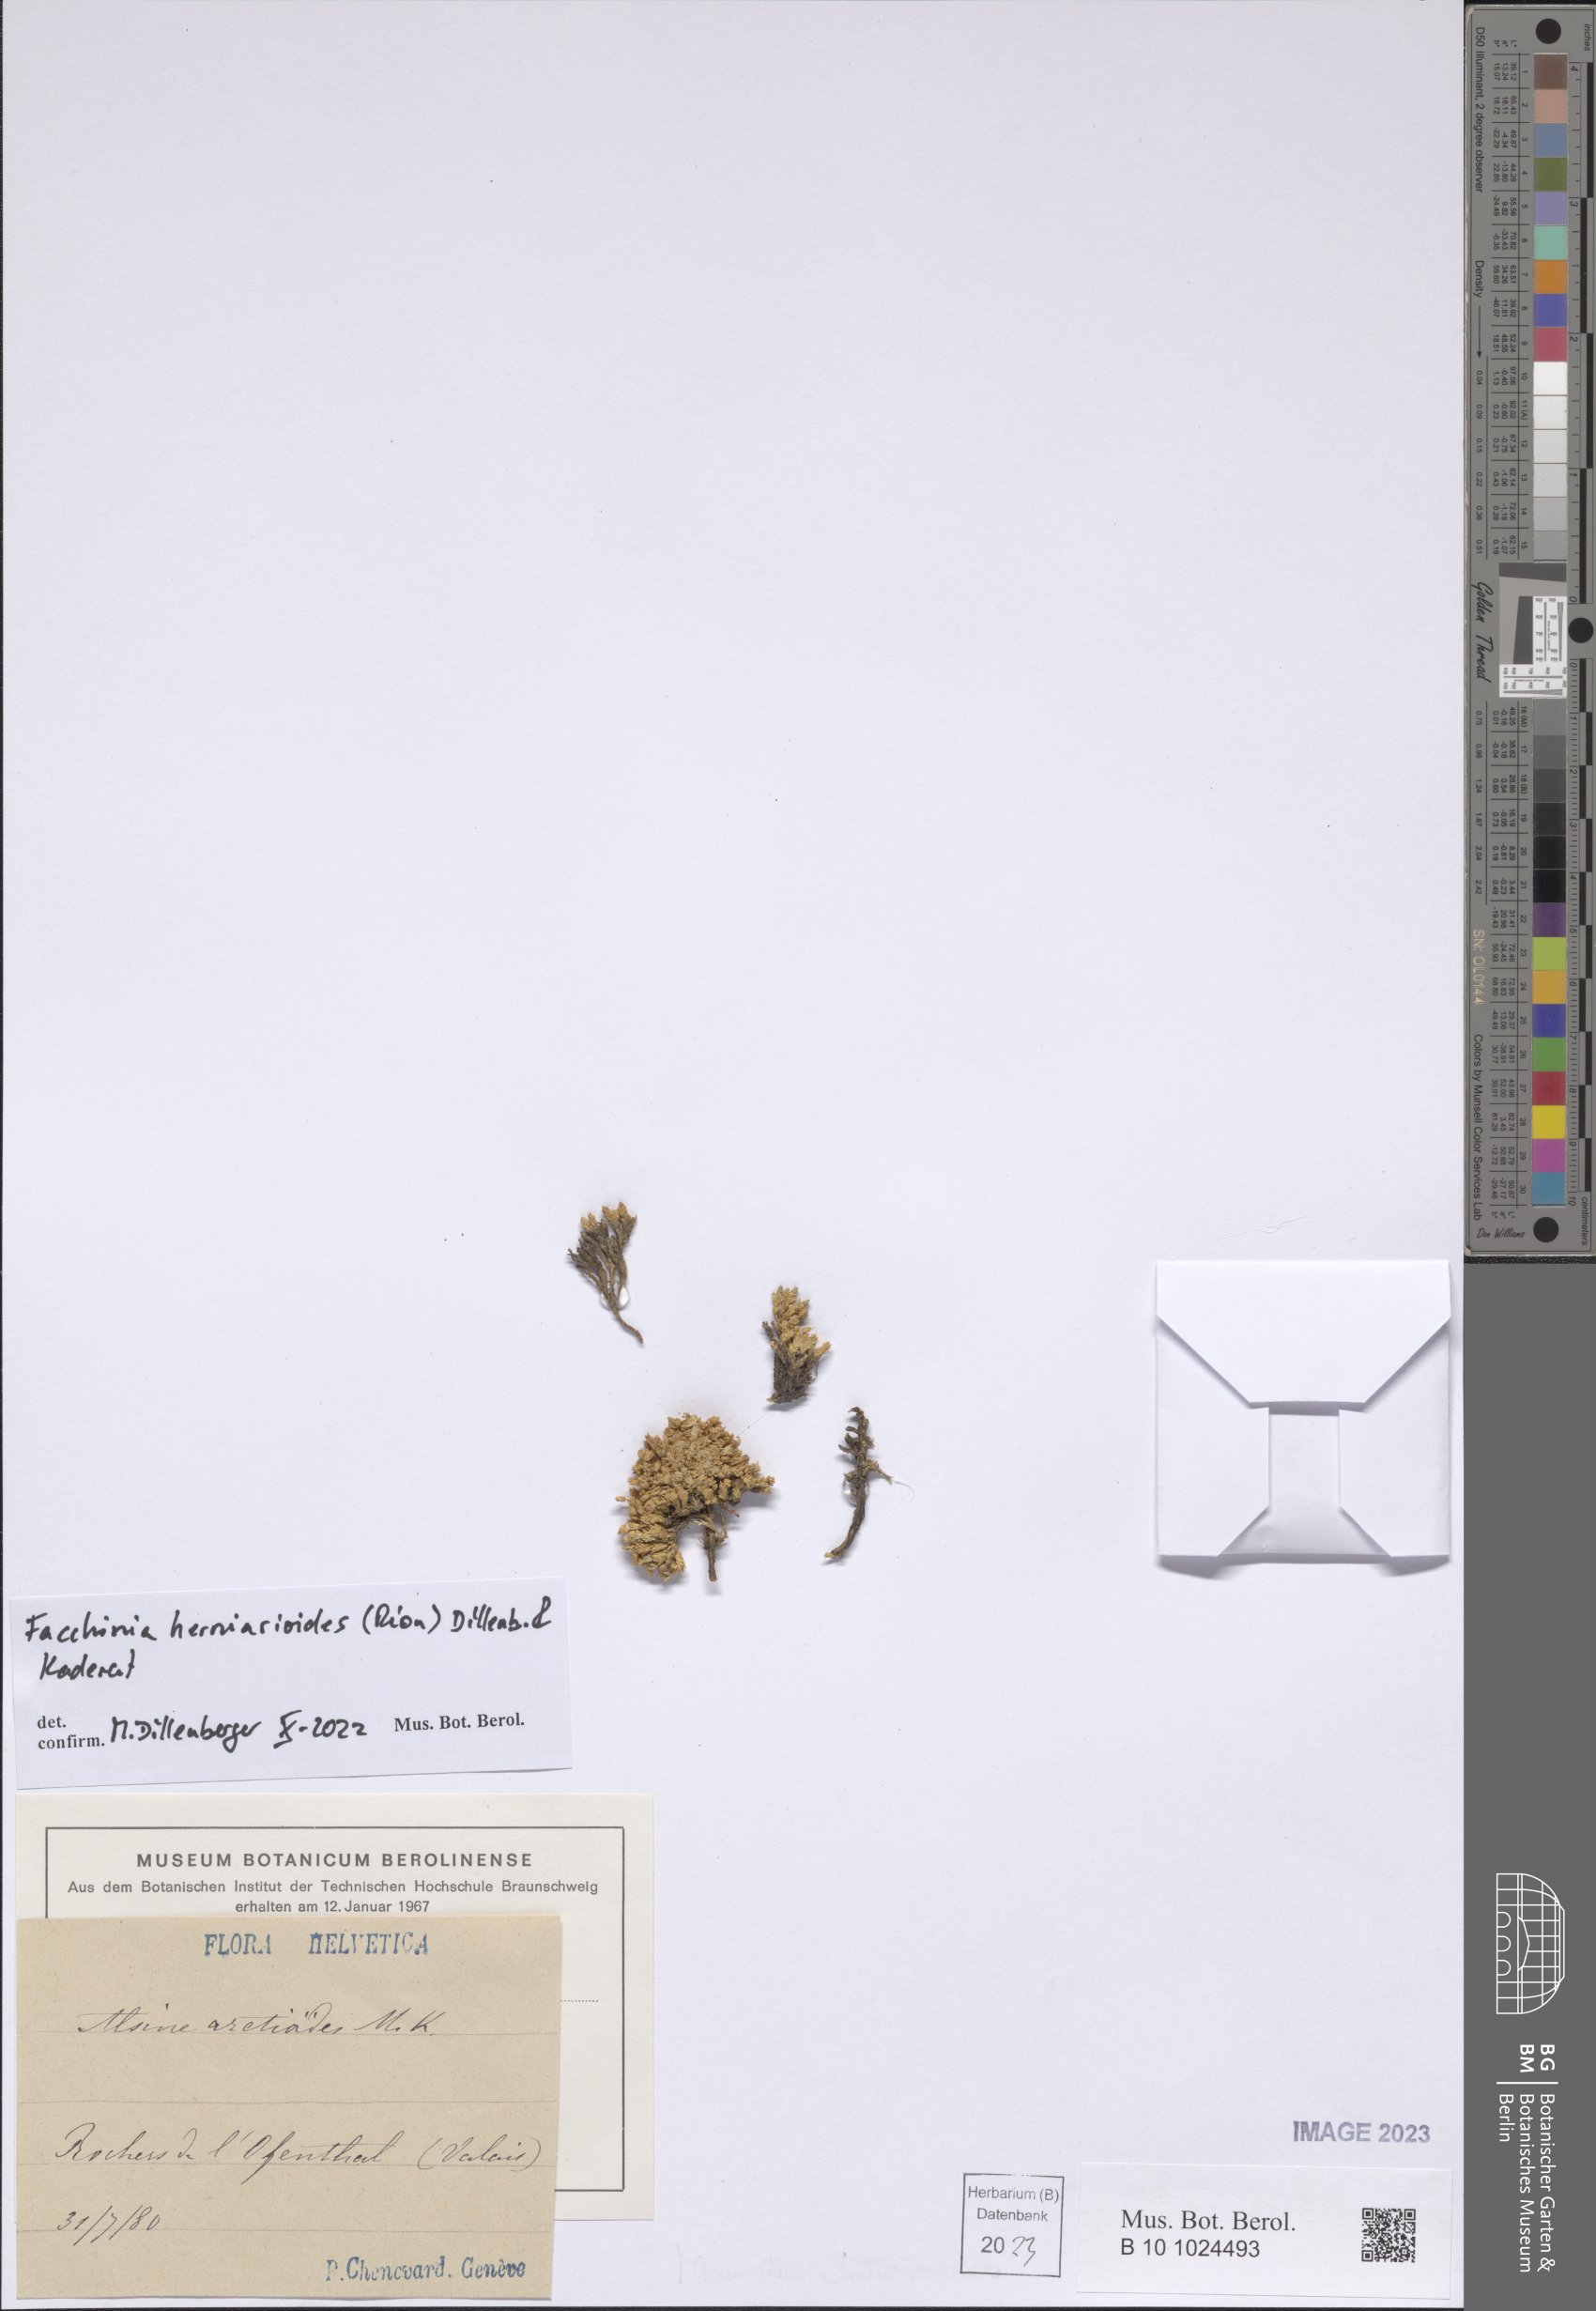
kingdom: Plantae
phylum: Tracheophyta
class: Magnoliopsida
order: Caryophyllales
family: Caryophyllaceae
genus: Facchinia
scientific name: Facchinia herniarioides
